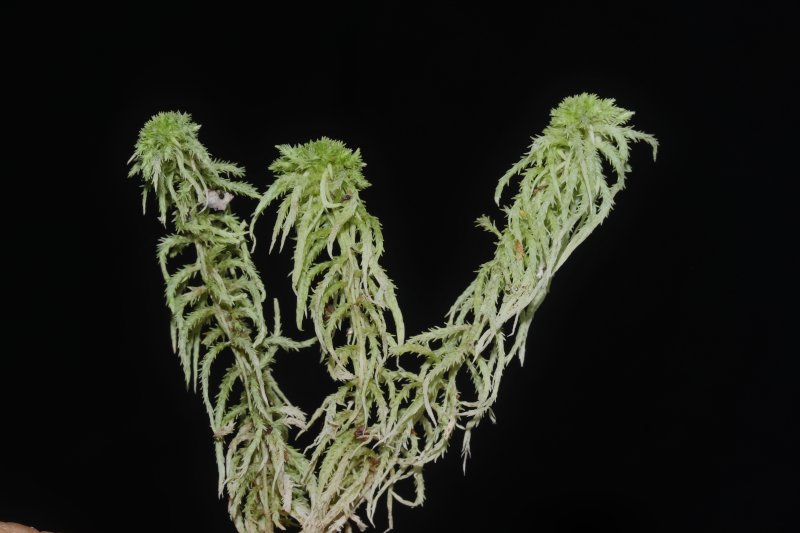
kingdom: Plantae
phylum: Bryophyta
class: Sphagnopsida
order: Sphagnales
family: Sphagnaceae
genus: Sphagnum
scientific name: Sphagnum
